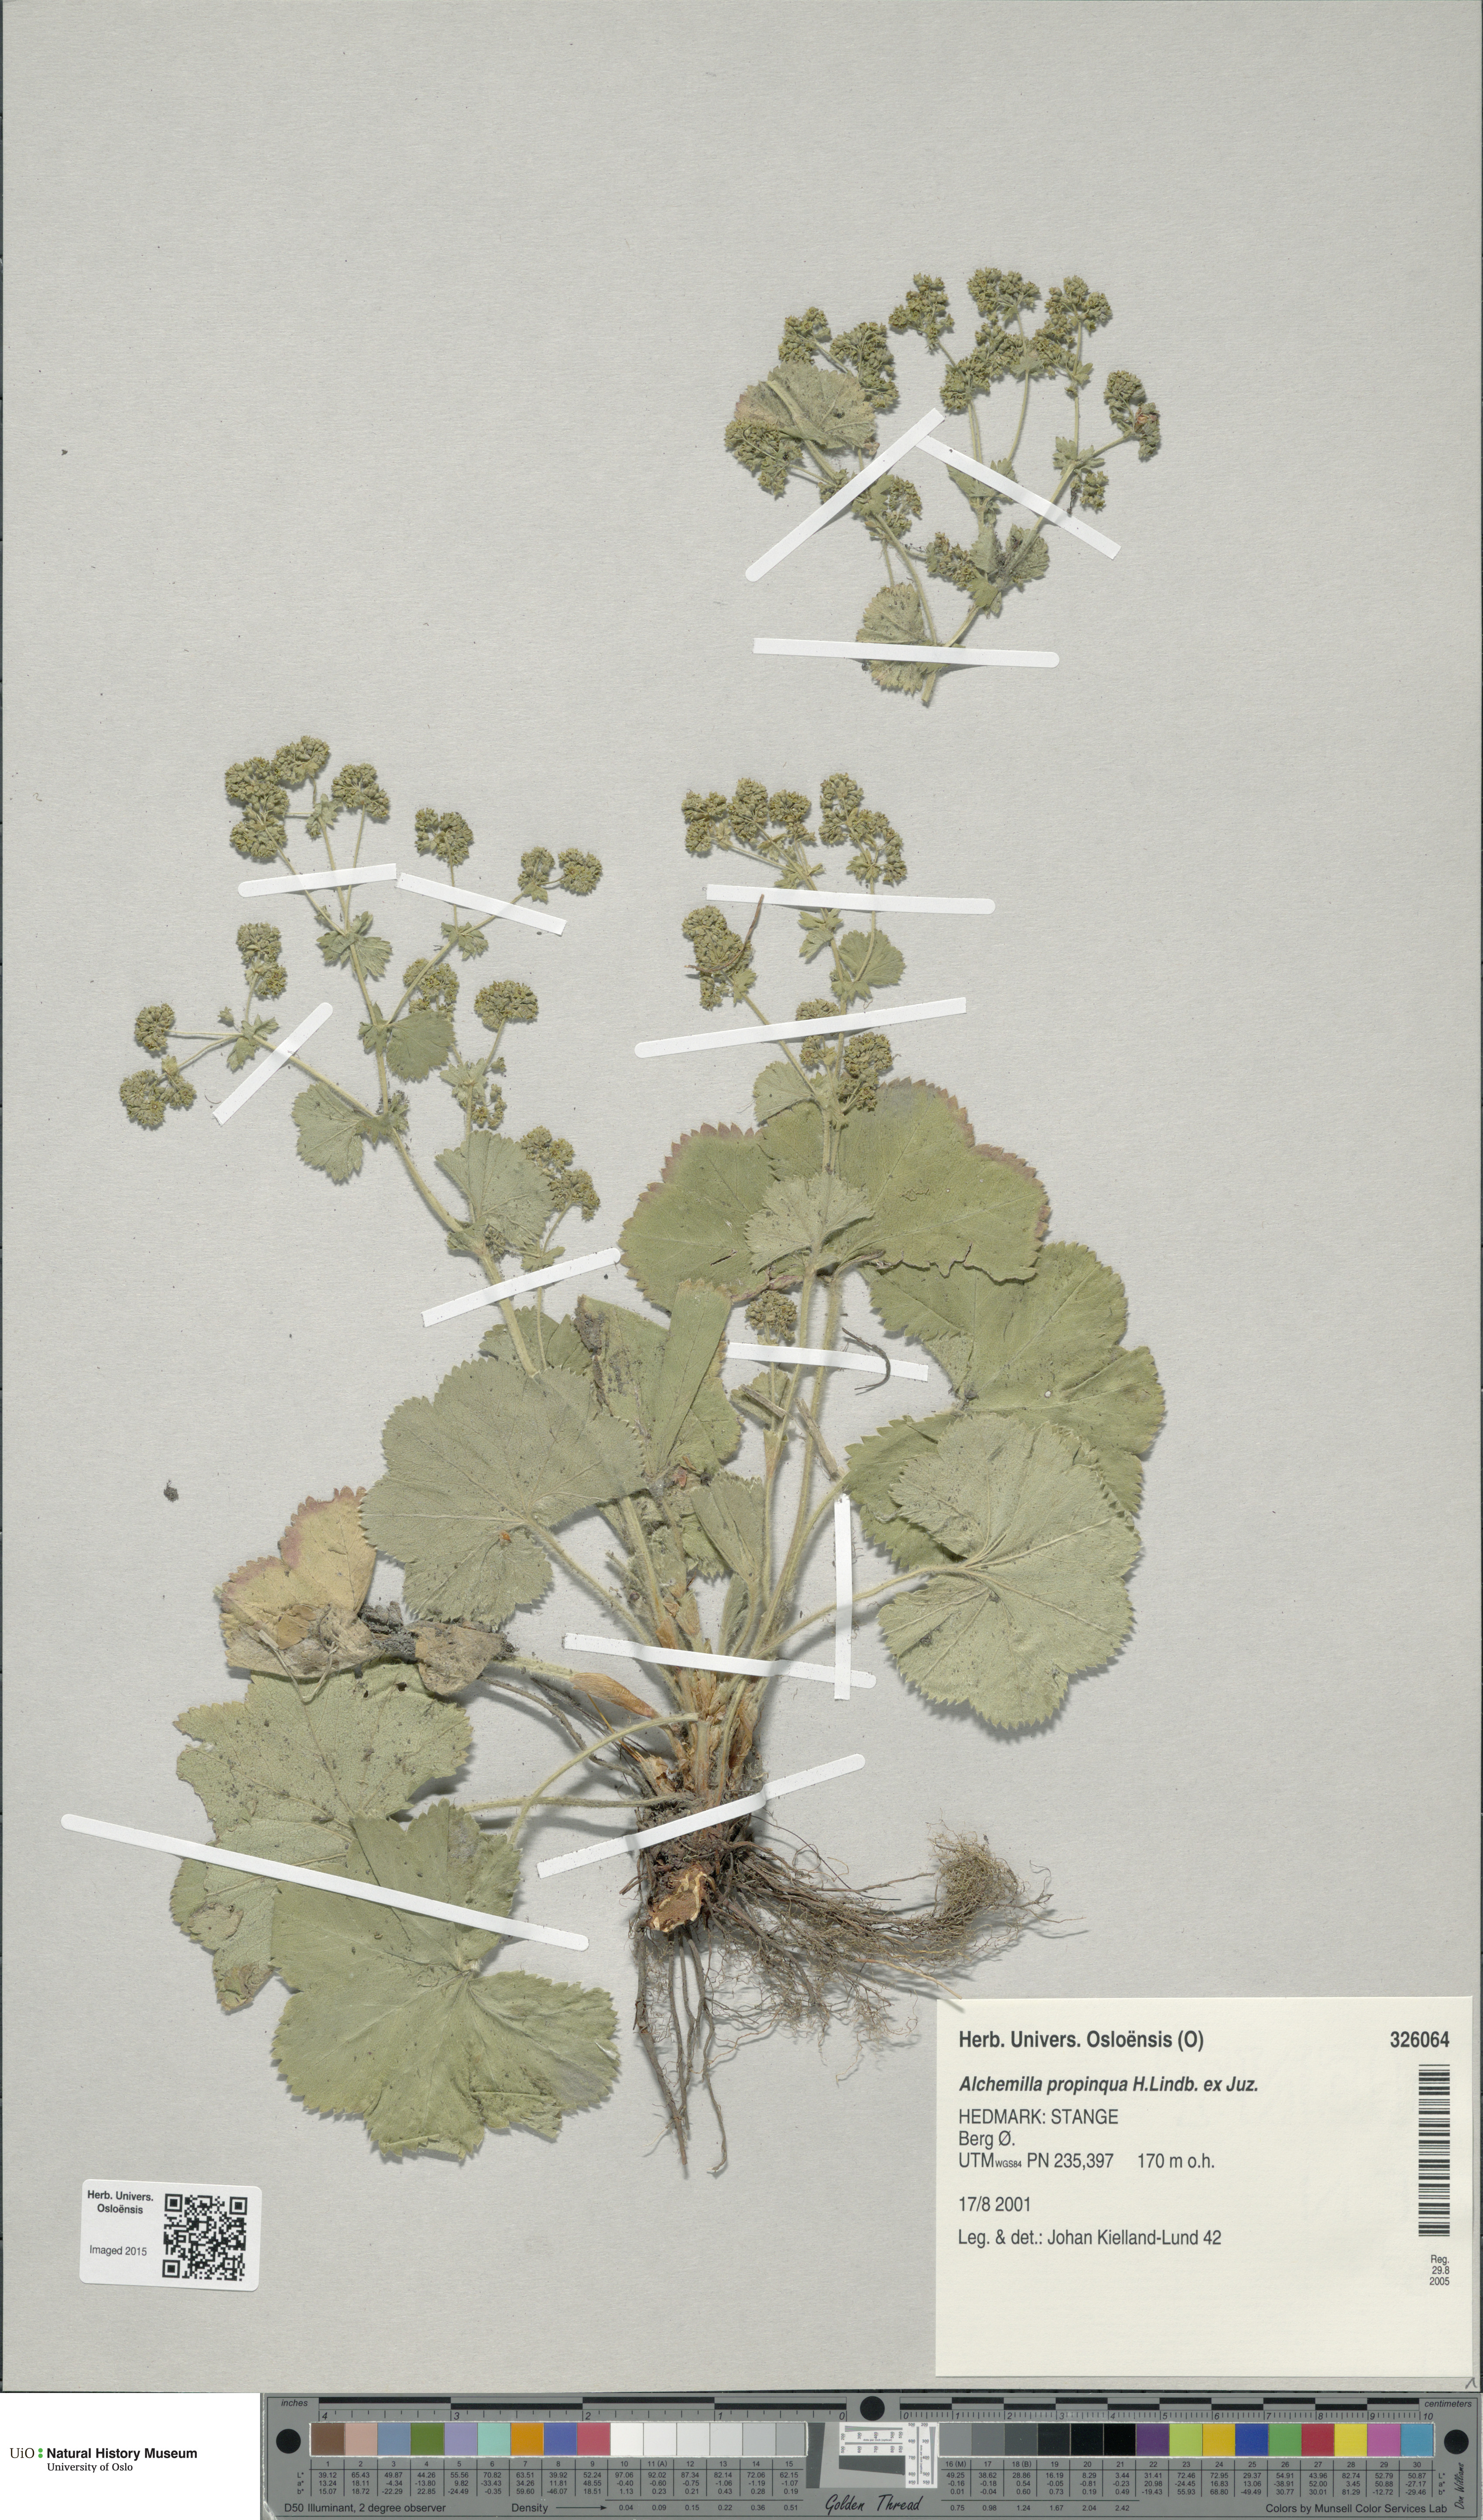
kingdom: Plantae
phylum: Tracheophyta
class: Magnoliopsida
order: Rosales
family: Rosaceae
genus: Alchemilla
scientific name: Alchemilla propinqua
